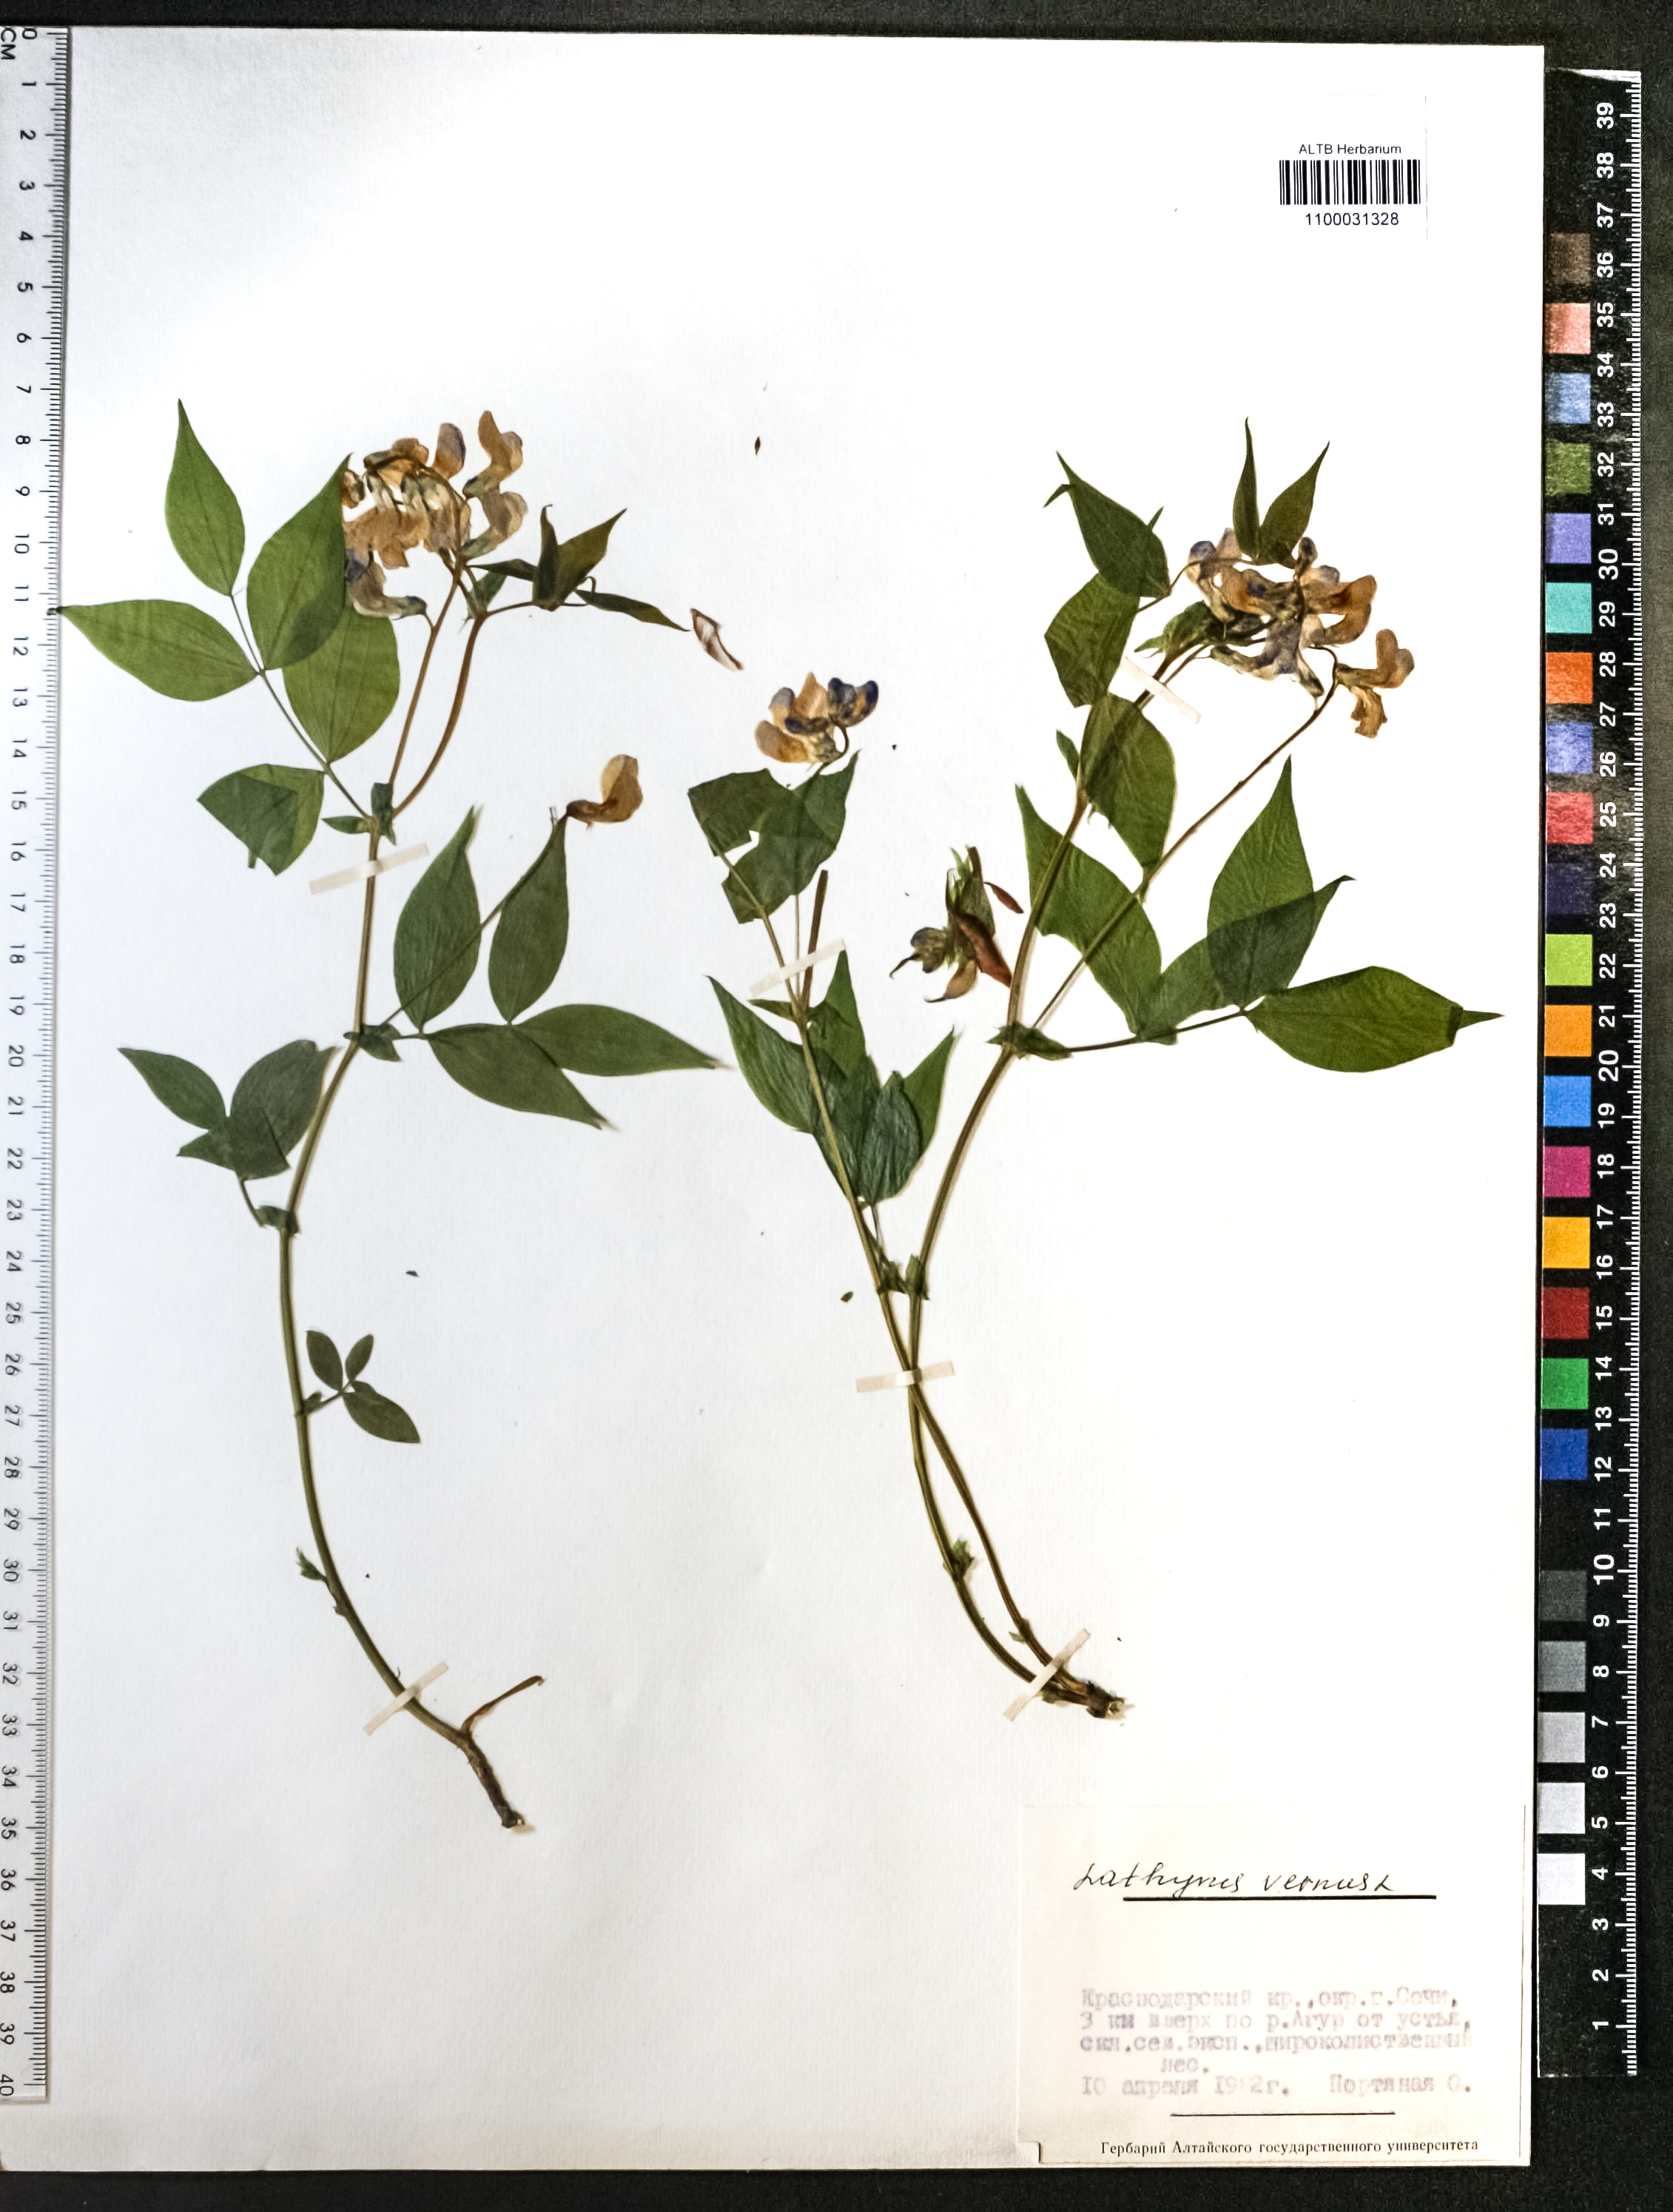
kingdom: Plantae
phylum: Tracheophyta
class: Magnoliopsida
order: Fabales
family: Fabaceae
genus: Lathyrus
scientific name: Lathyrus vernus
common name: Spring pea
